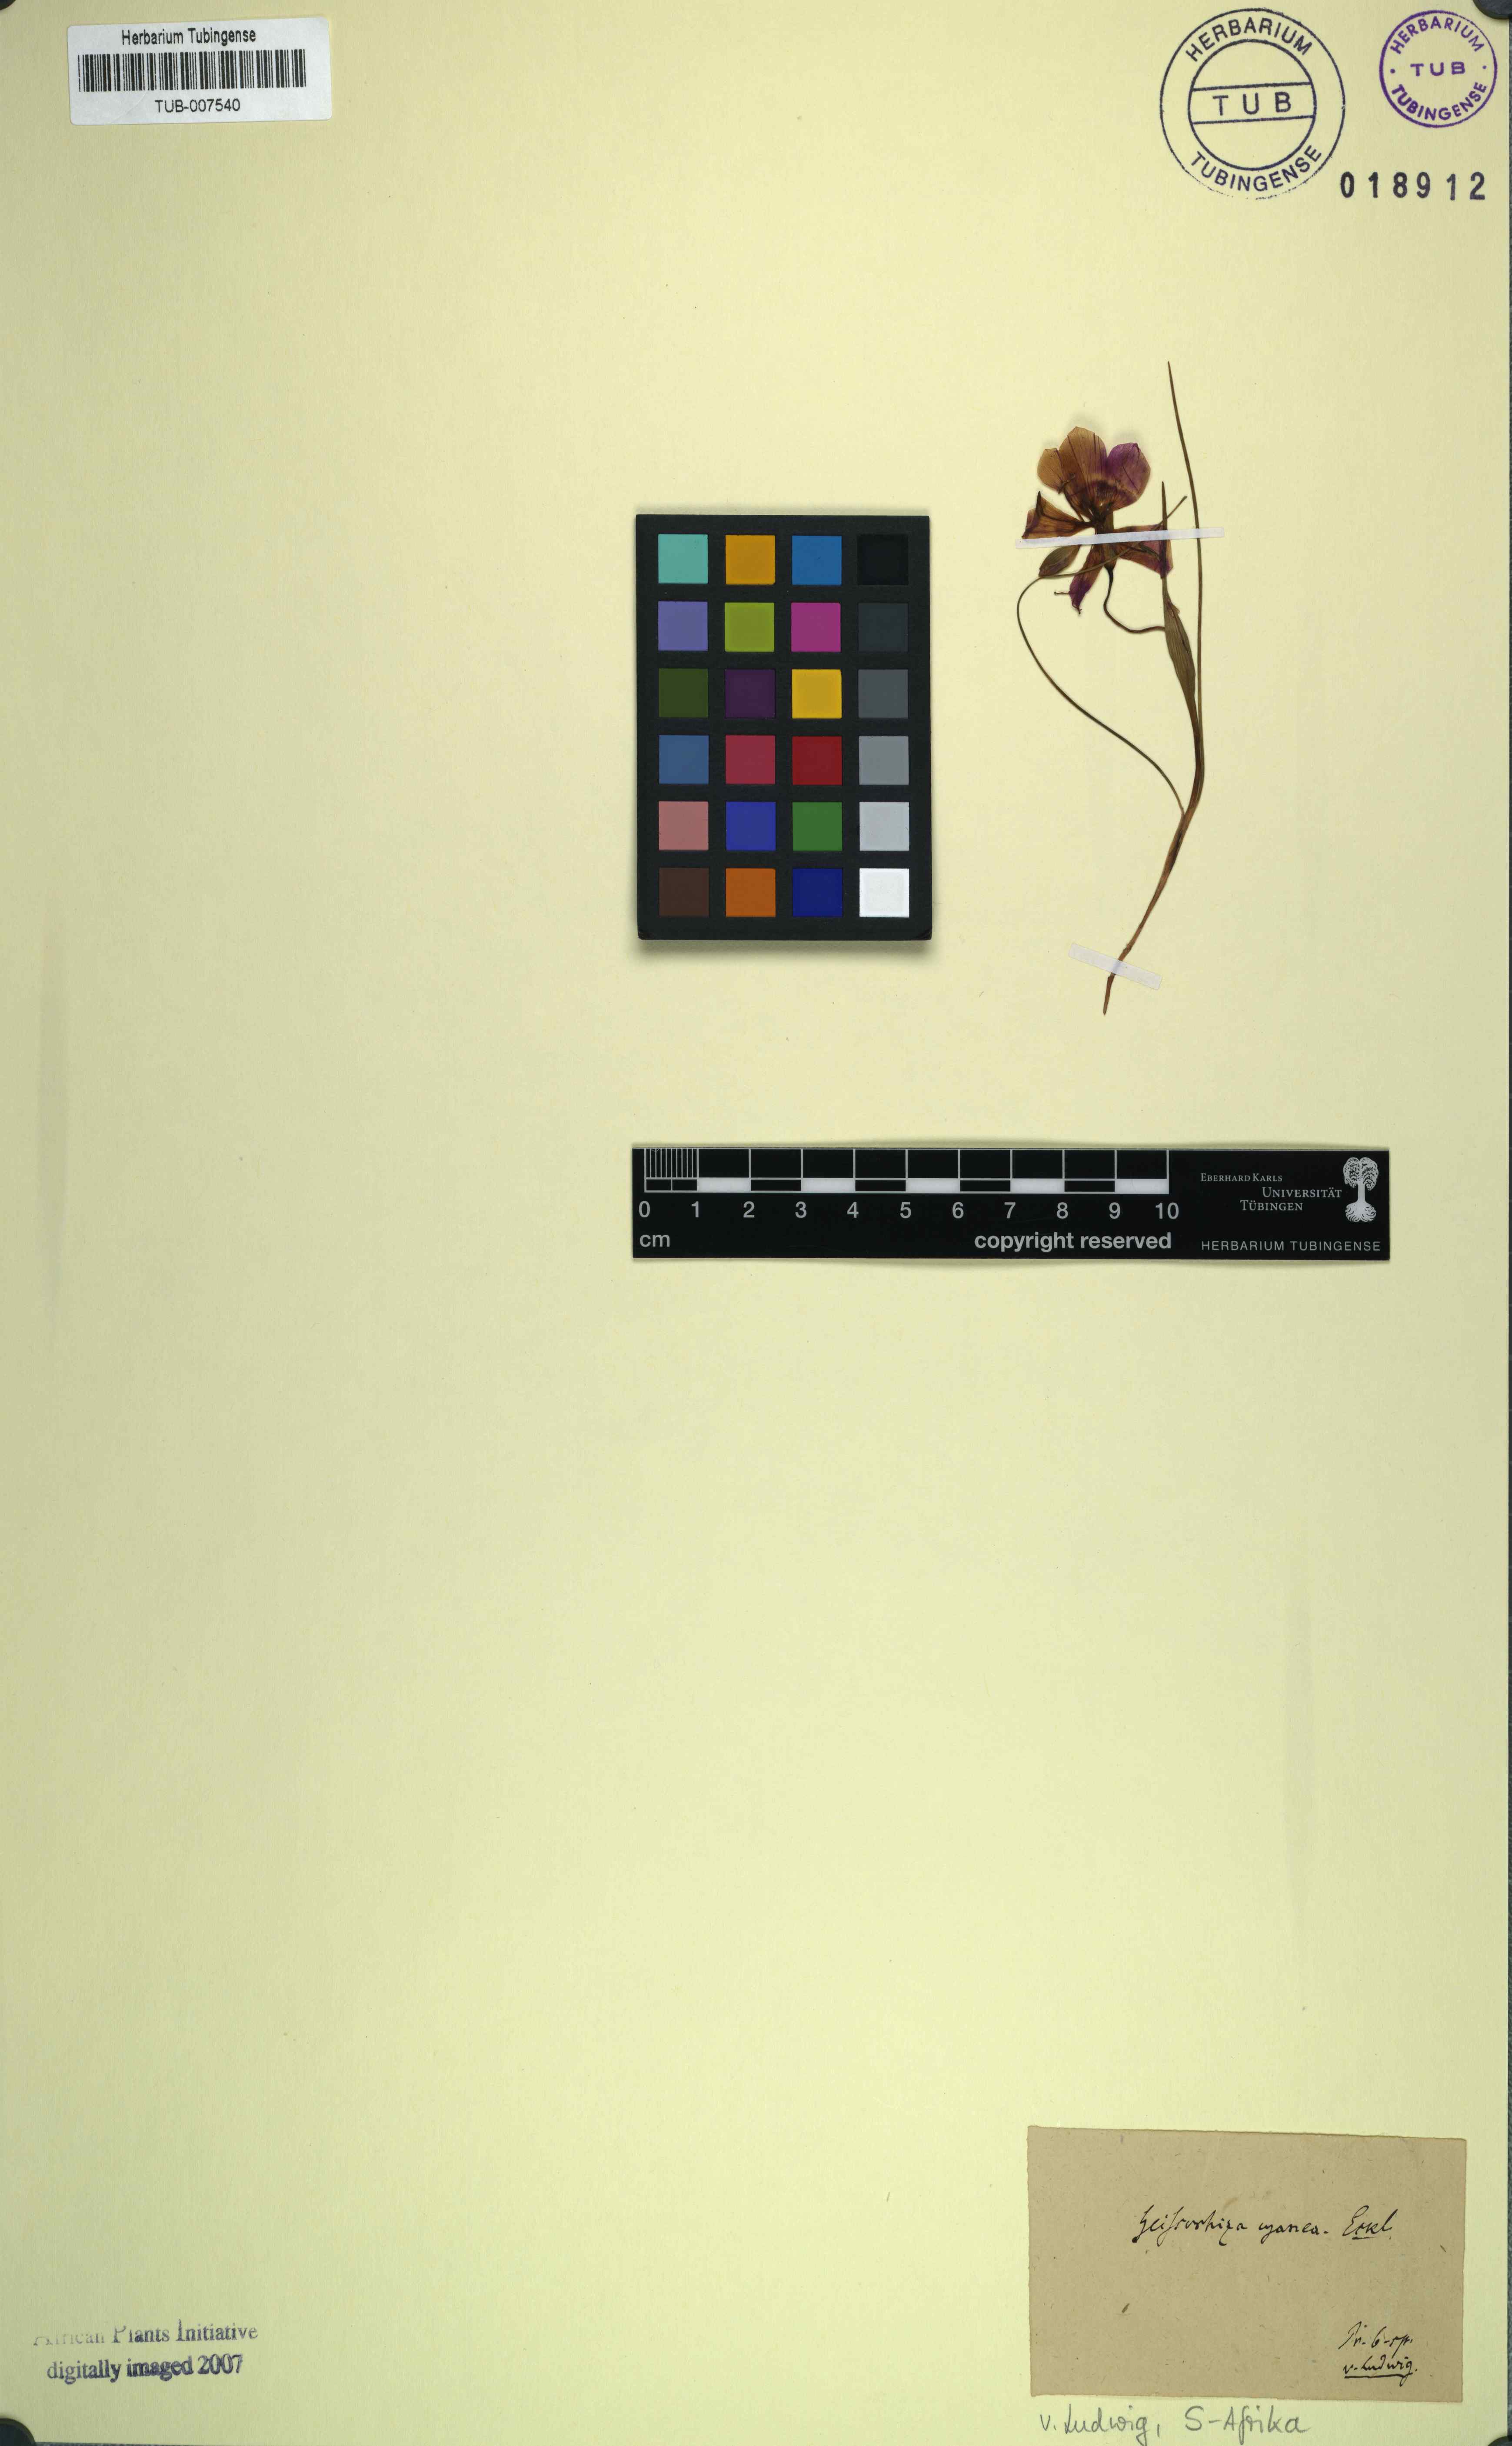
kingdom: Plantae
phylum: Tracheophyta
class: Liliopsida
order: Asparagales
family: Iridaceae
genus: Geissorhiza
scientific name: Geissorhiza radians
